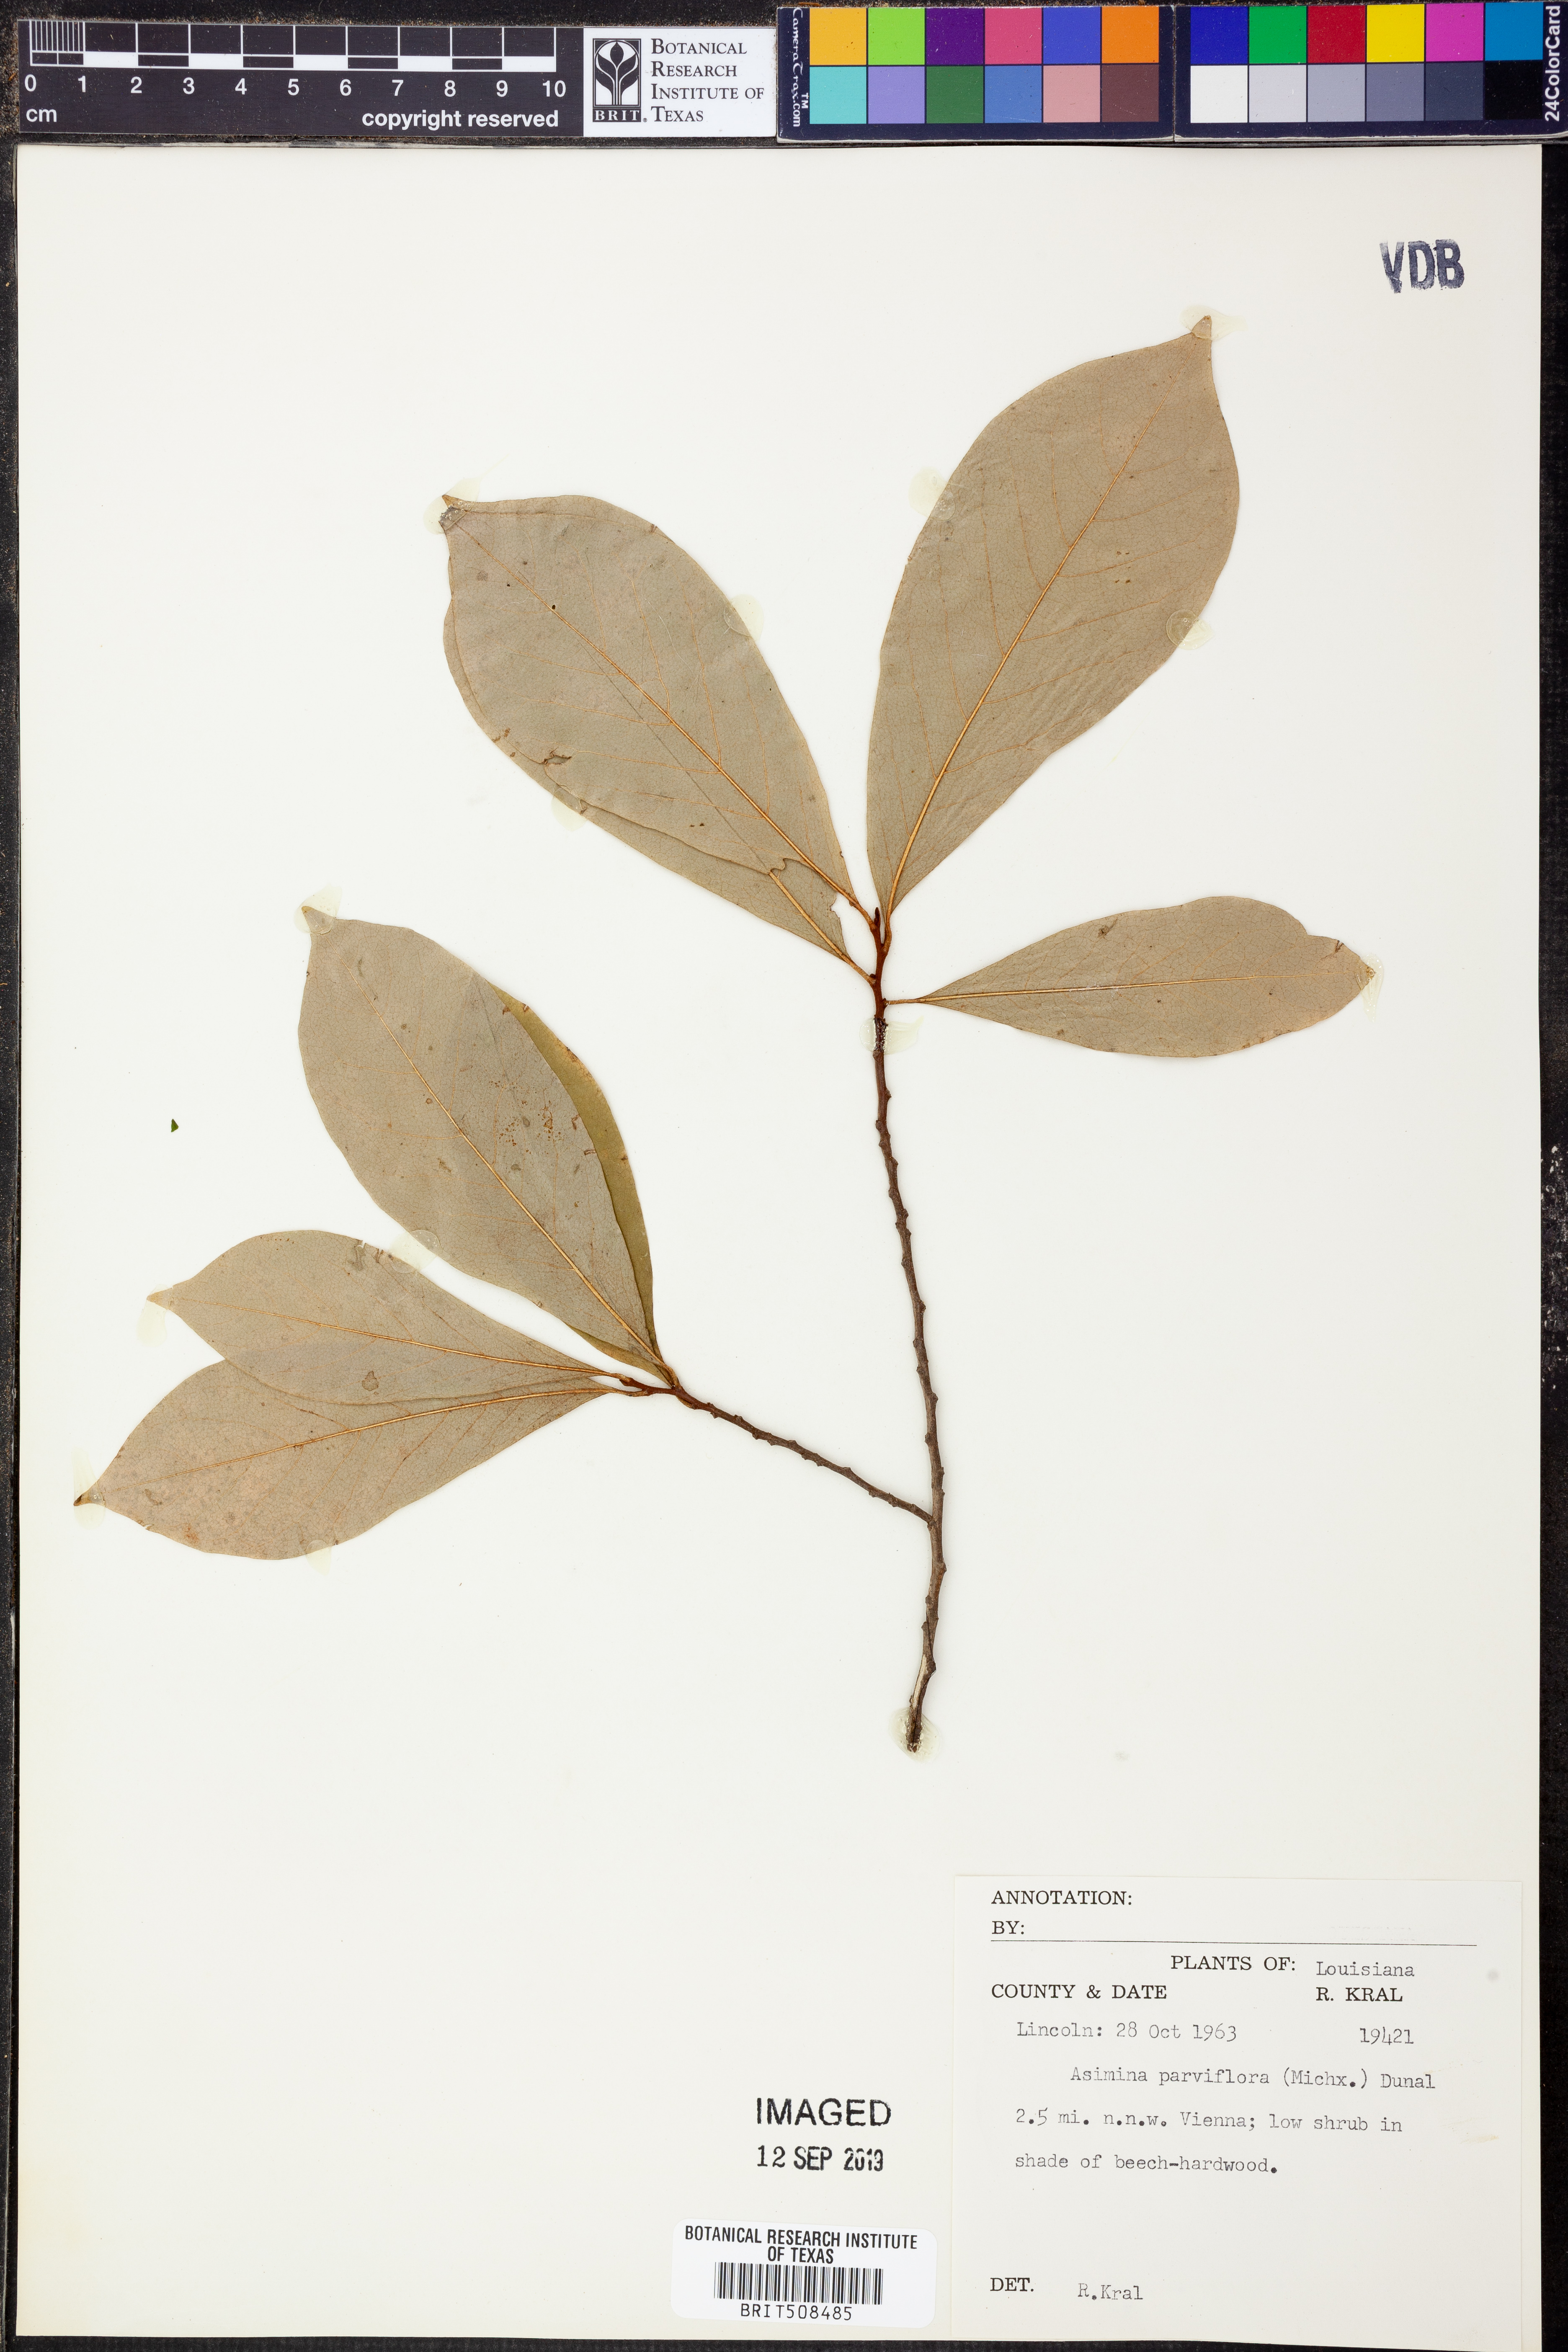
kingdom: Plantae
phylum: Tracheophyta
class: Magnoliopsida
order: Magnoliales
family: Annonaceae
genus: Asimina
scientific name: Asimina parviflora
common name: Dwarf pawpaw
